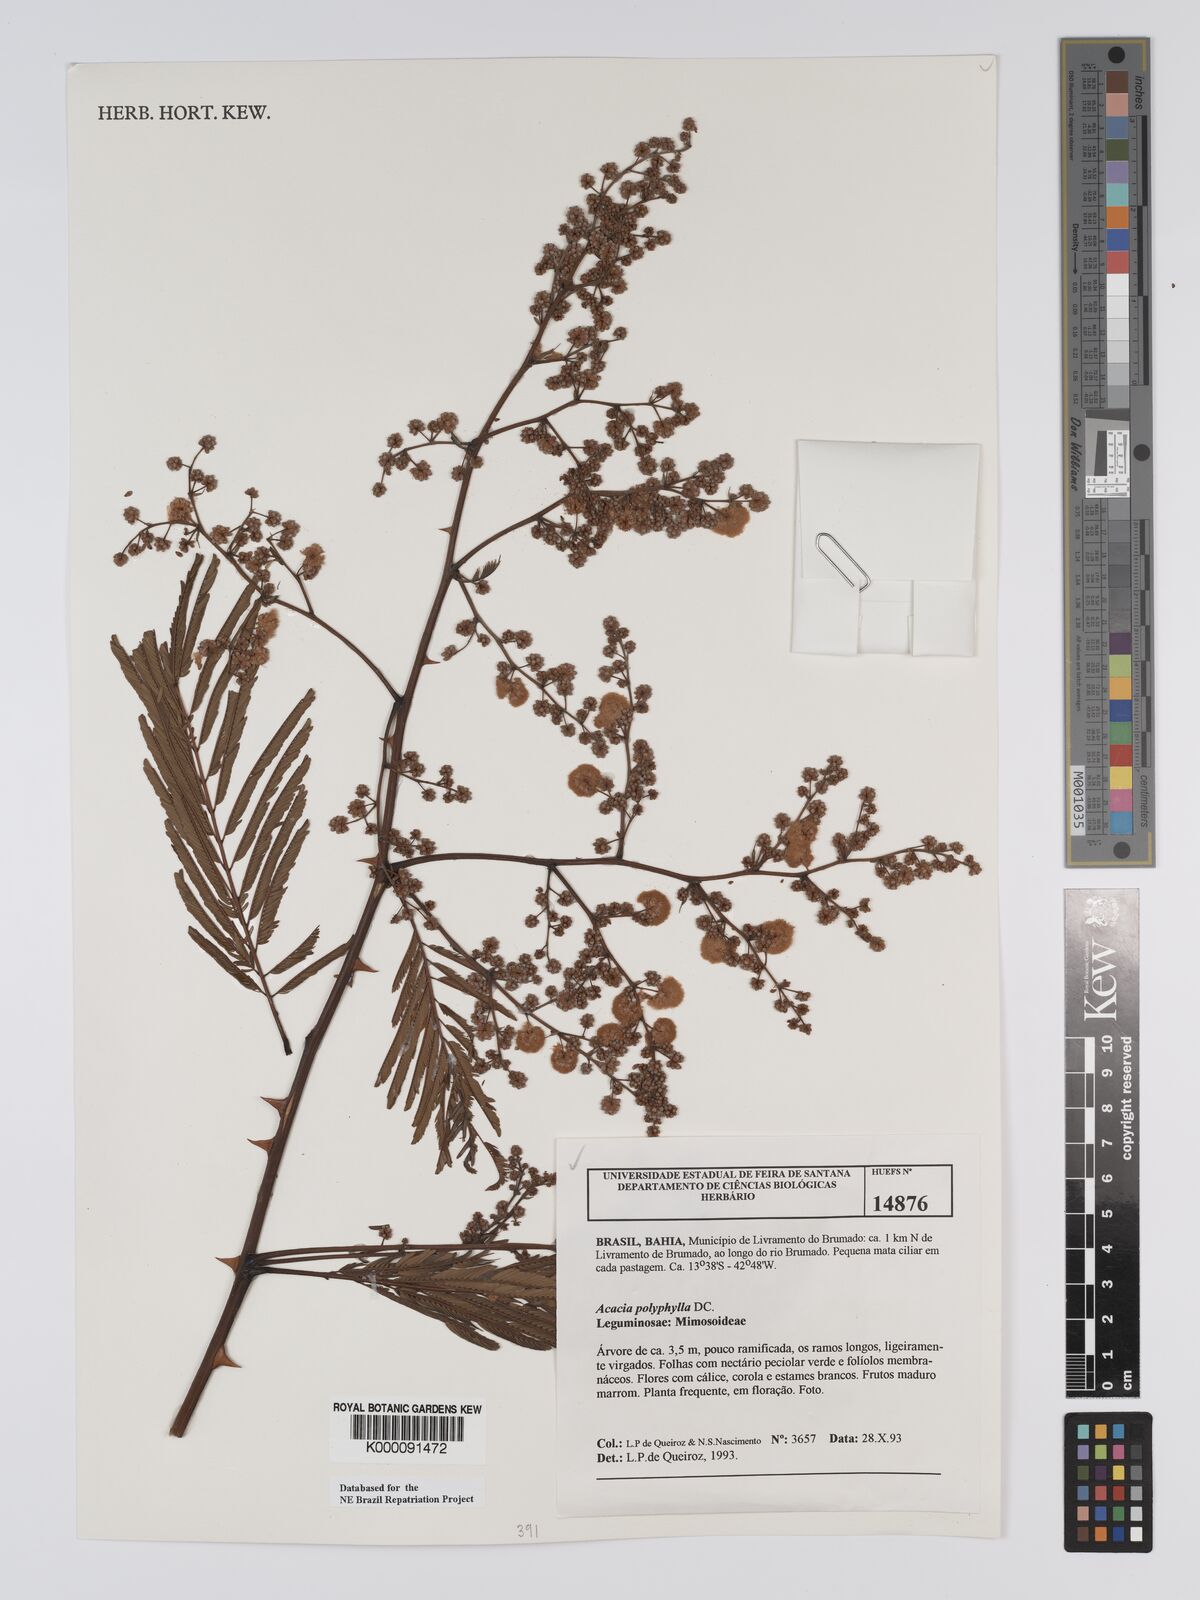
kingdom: Plantae
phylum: Tracheophyta
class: Magnoliopsida
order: Fabales
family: Fabaceae
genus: Senegalia
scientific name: Senegalia polyphylla
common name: White-tamarind
